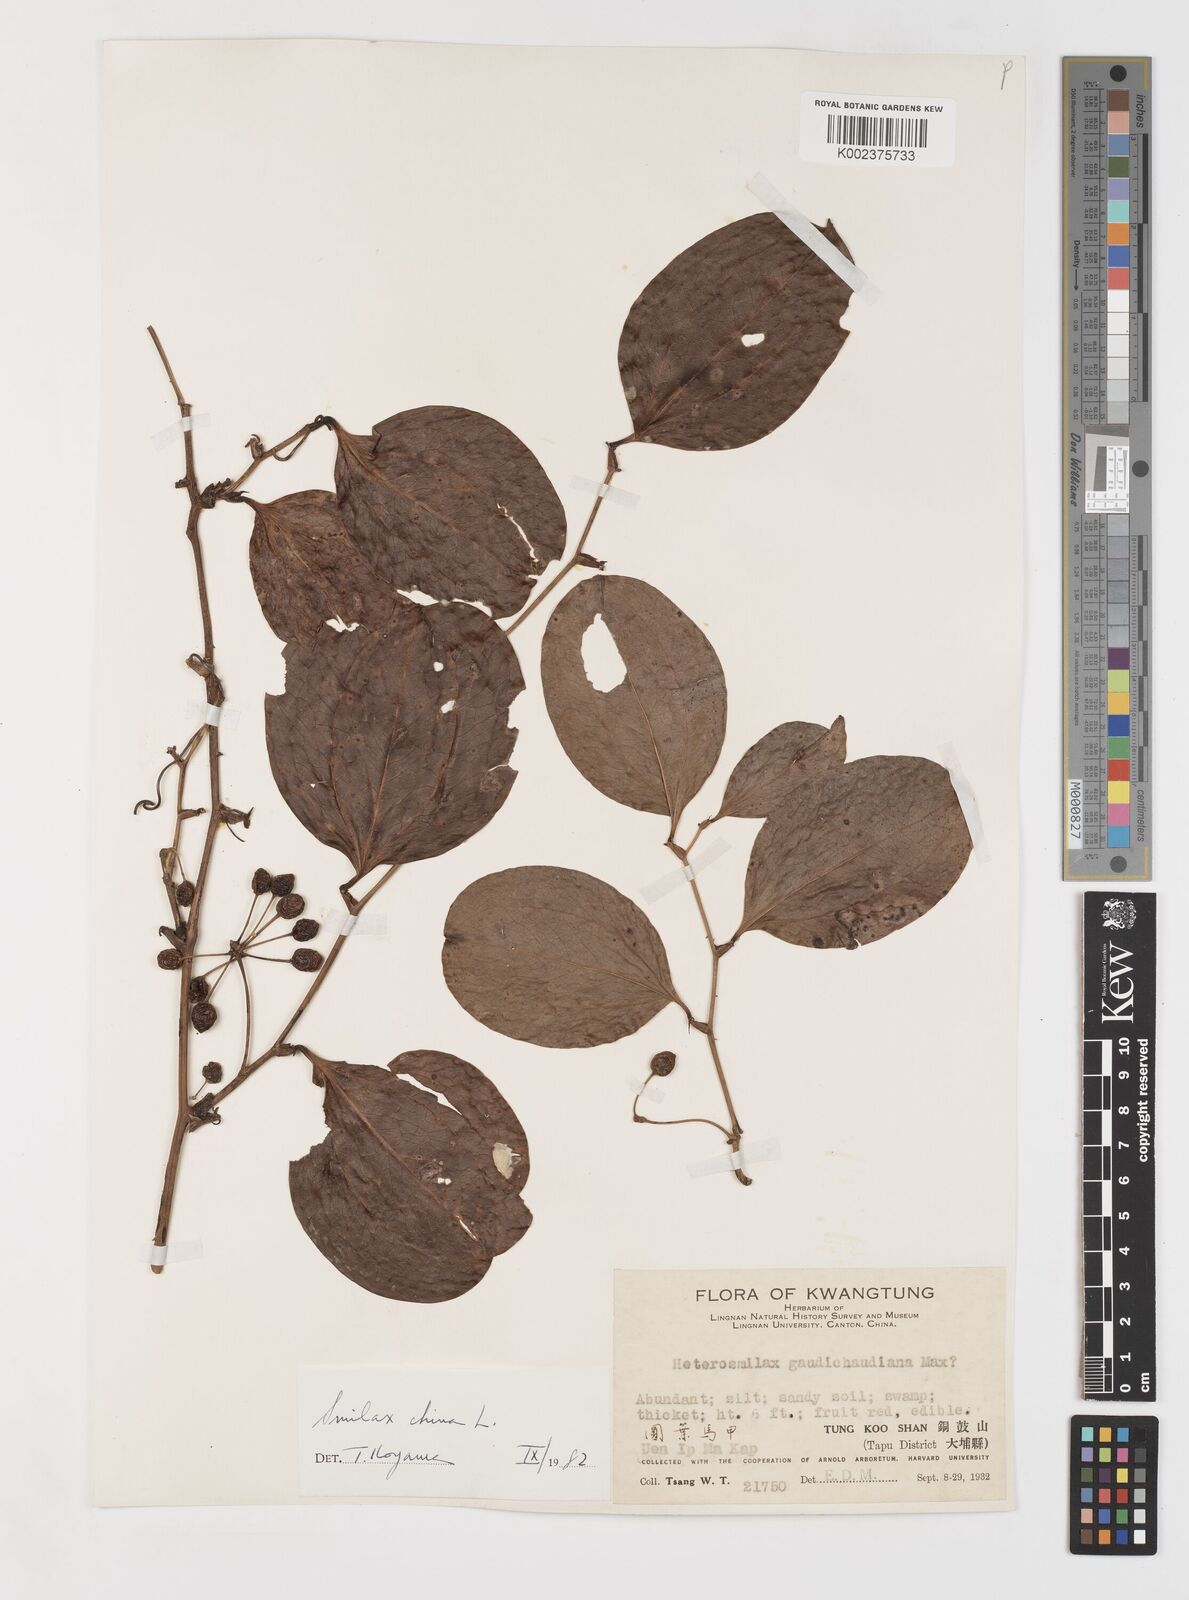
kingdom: Plantae
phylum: Tracheophyta
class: Liliopsida
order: Liliales
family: Smilacaceae
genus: Smilax
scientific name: Smilax china
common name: Chinaroot
